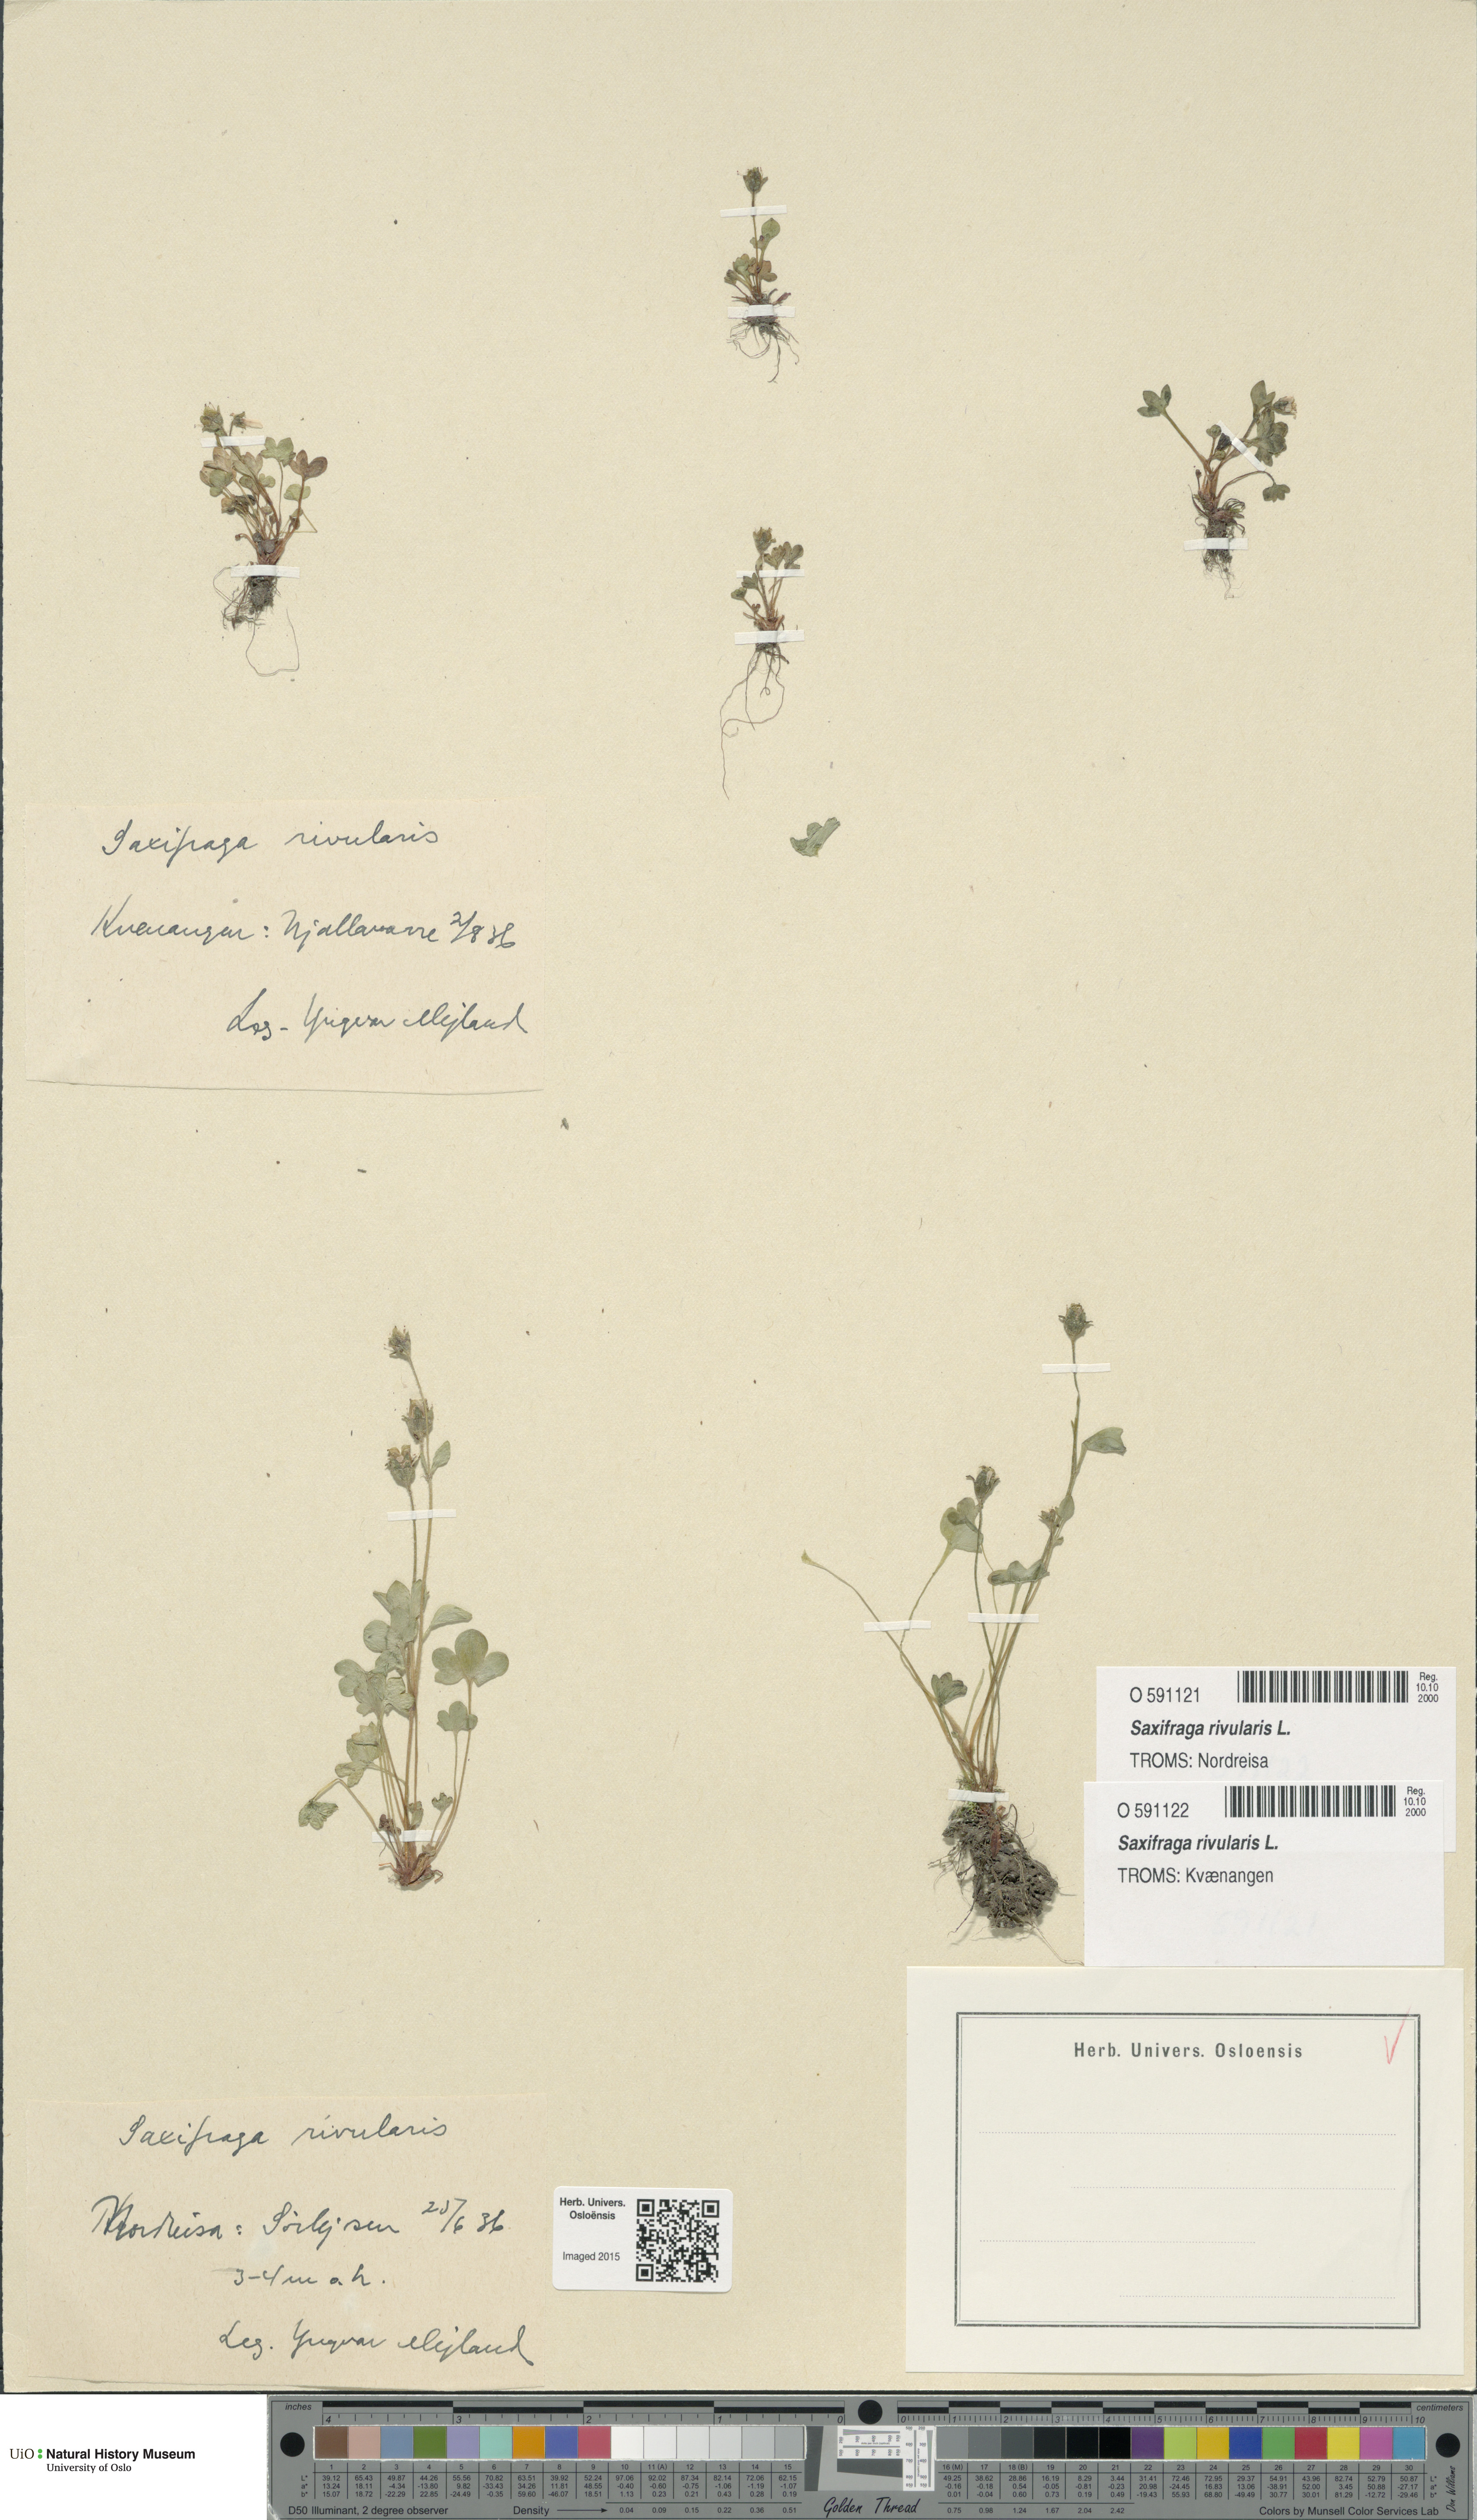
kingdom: Plantae
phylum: Tracheophyta
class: Magnoliopsida
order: Saxifragales
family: Saxifragaceae
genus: Saxifraga
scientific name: Saxifraga rivularis
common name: Highland saxifrage
